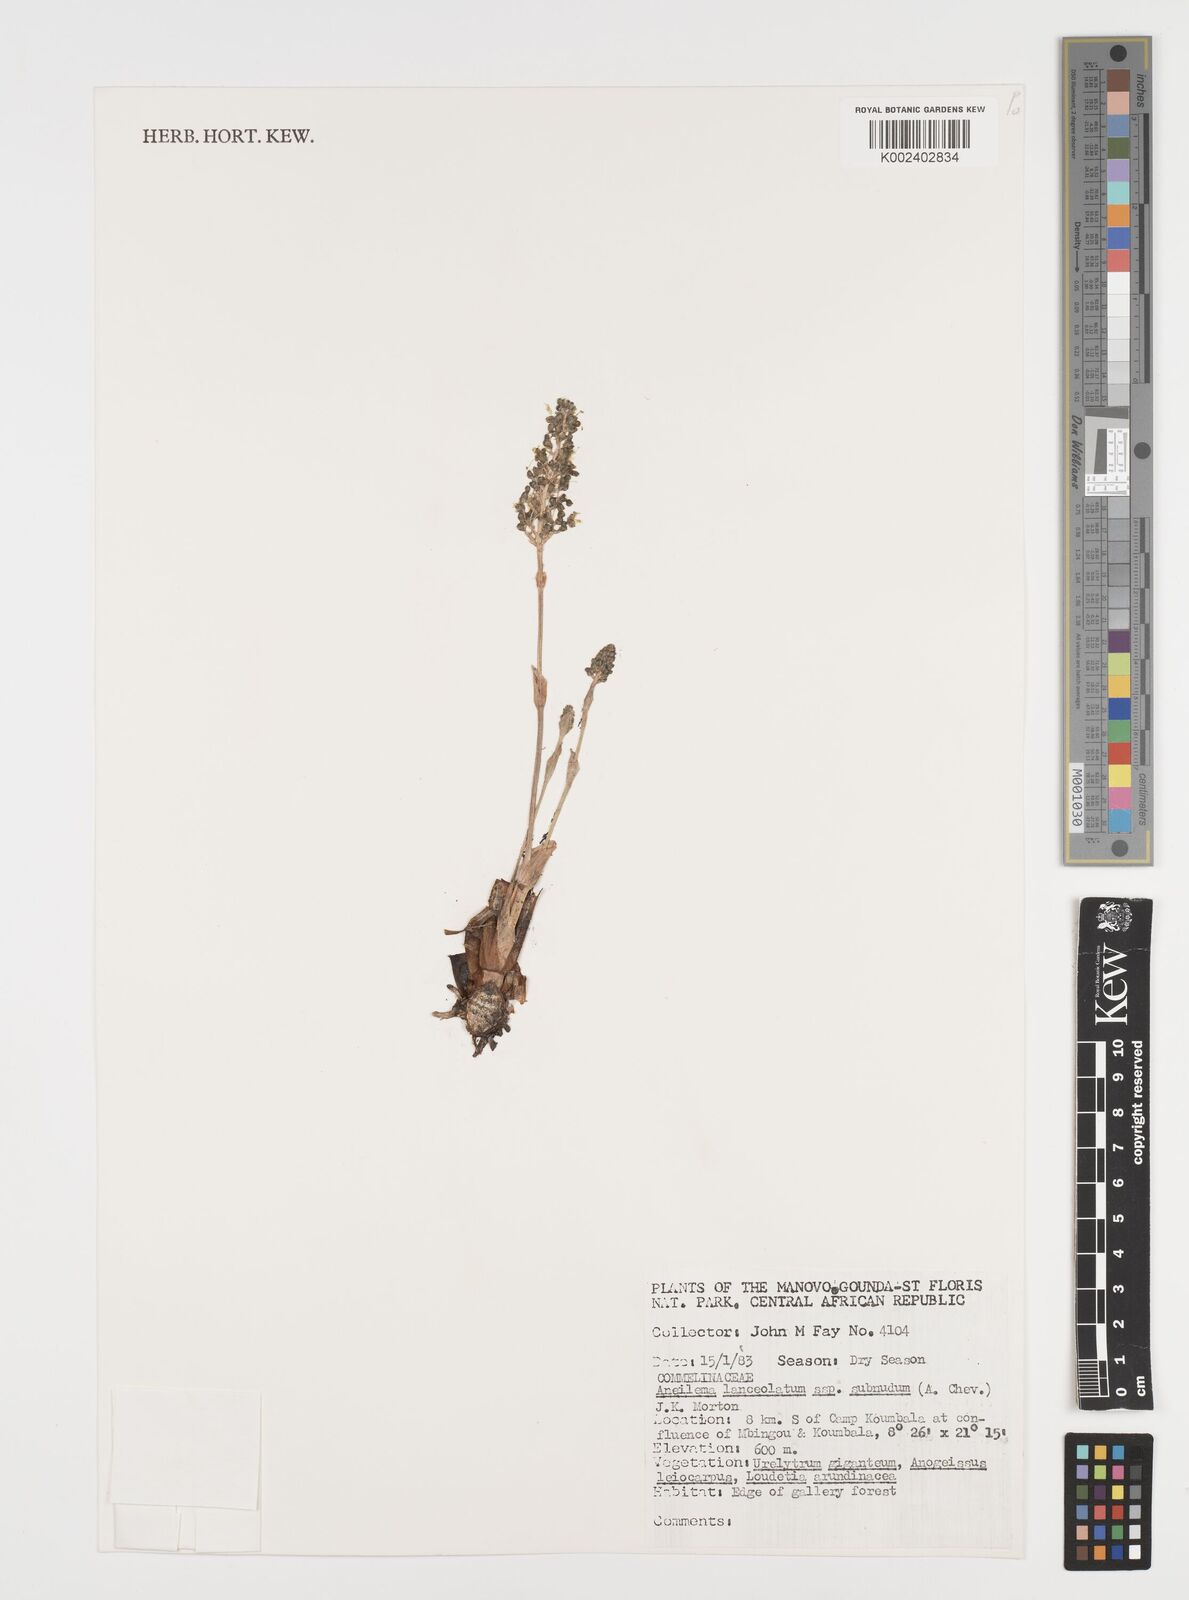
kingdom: Plantae
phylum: Tracheophyta
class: Liliopsida
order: Commelinales
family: Commelinaceae
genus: Aneilema
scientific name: Aneilema lanceolatum
